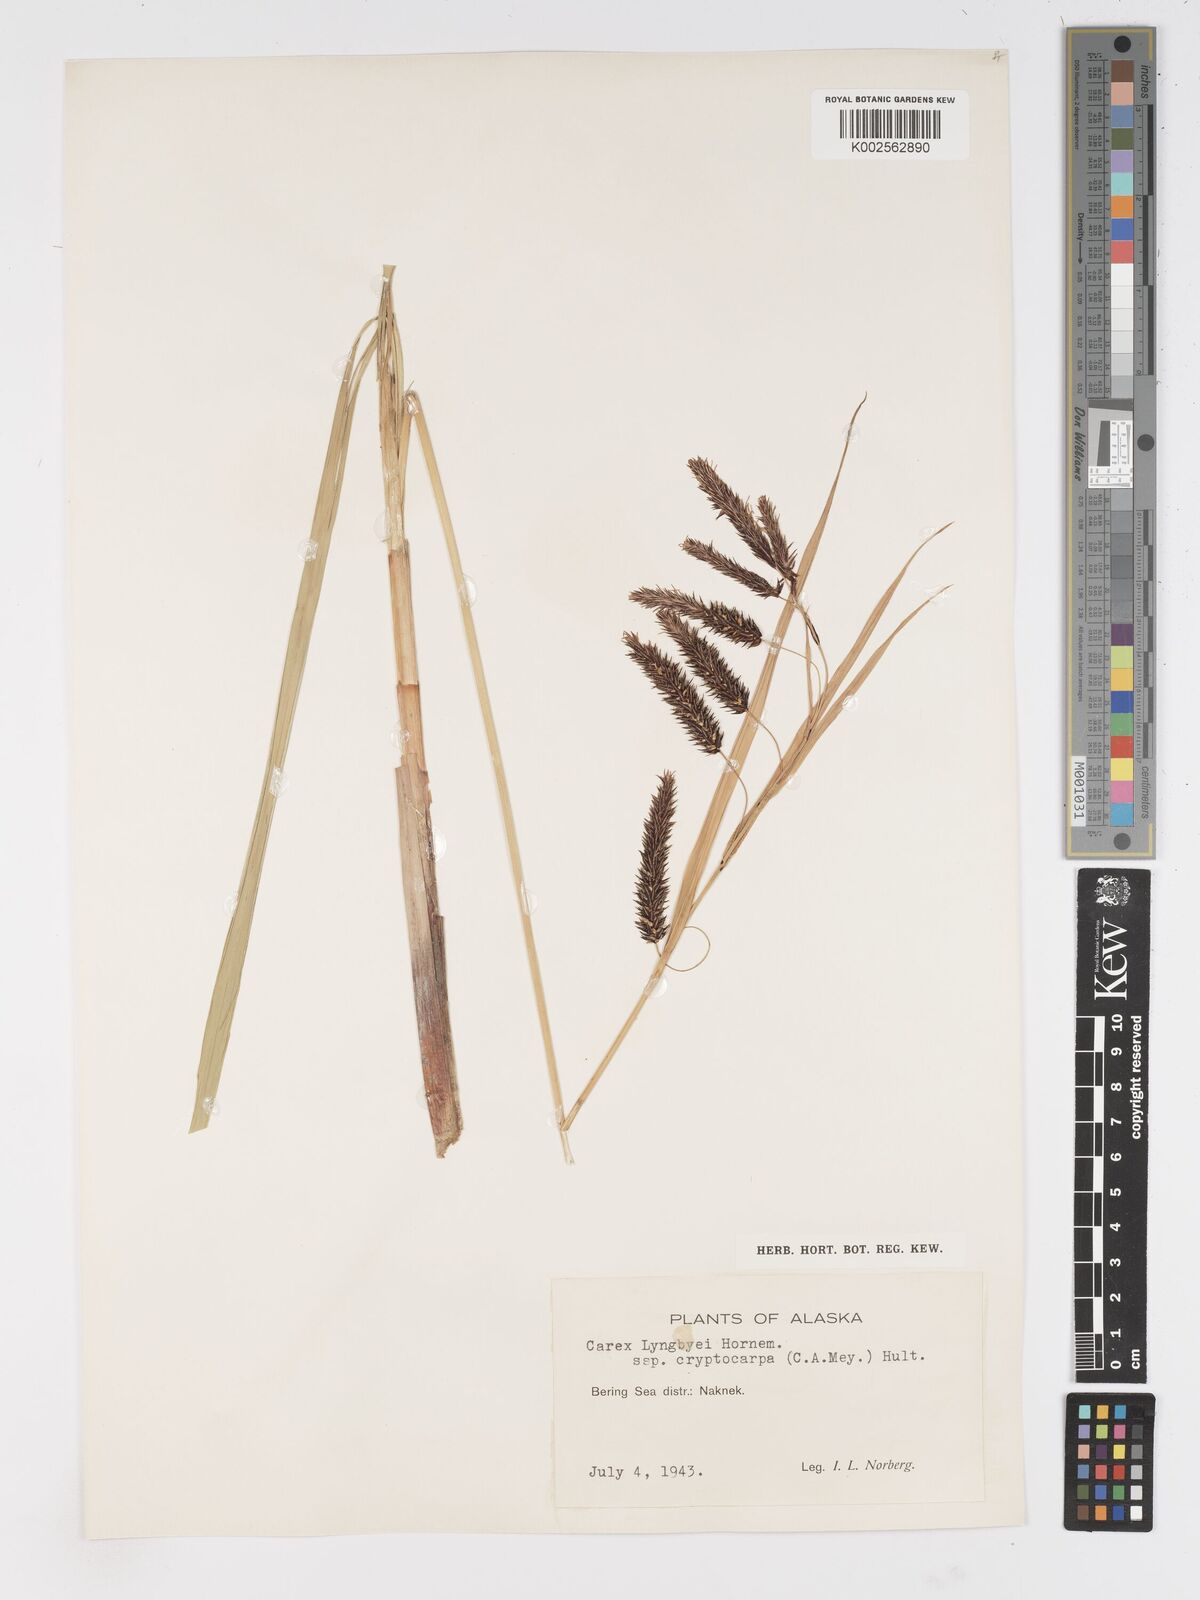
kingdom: Plantae
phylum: Tracheophyta
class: Liliopsida
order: Poales
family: Cyperaceae
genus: Carex
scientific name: Carex lyngbyei
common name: Lyngbye's sedge
